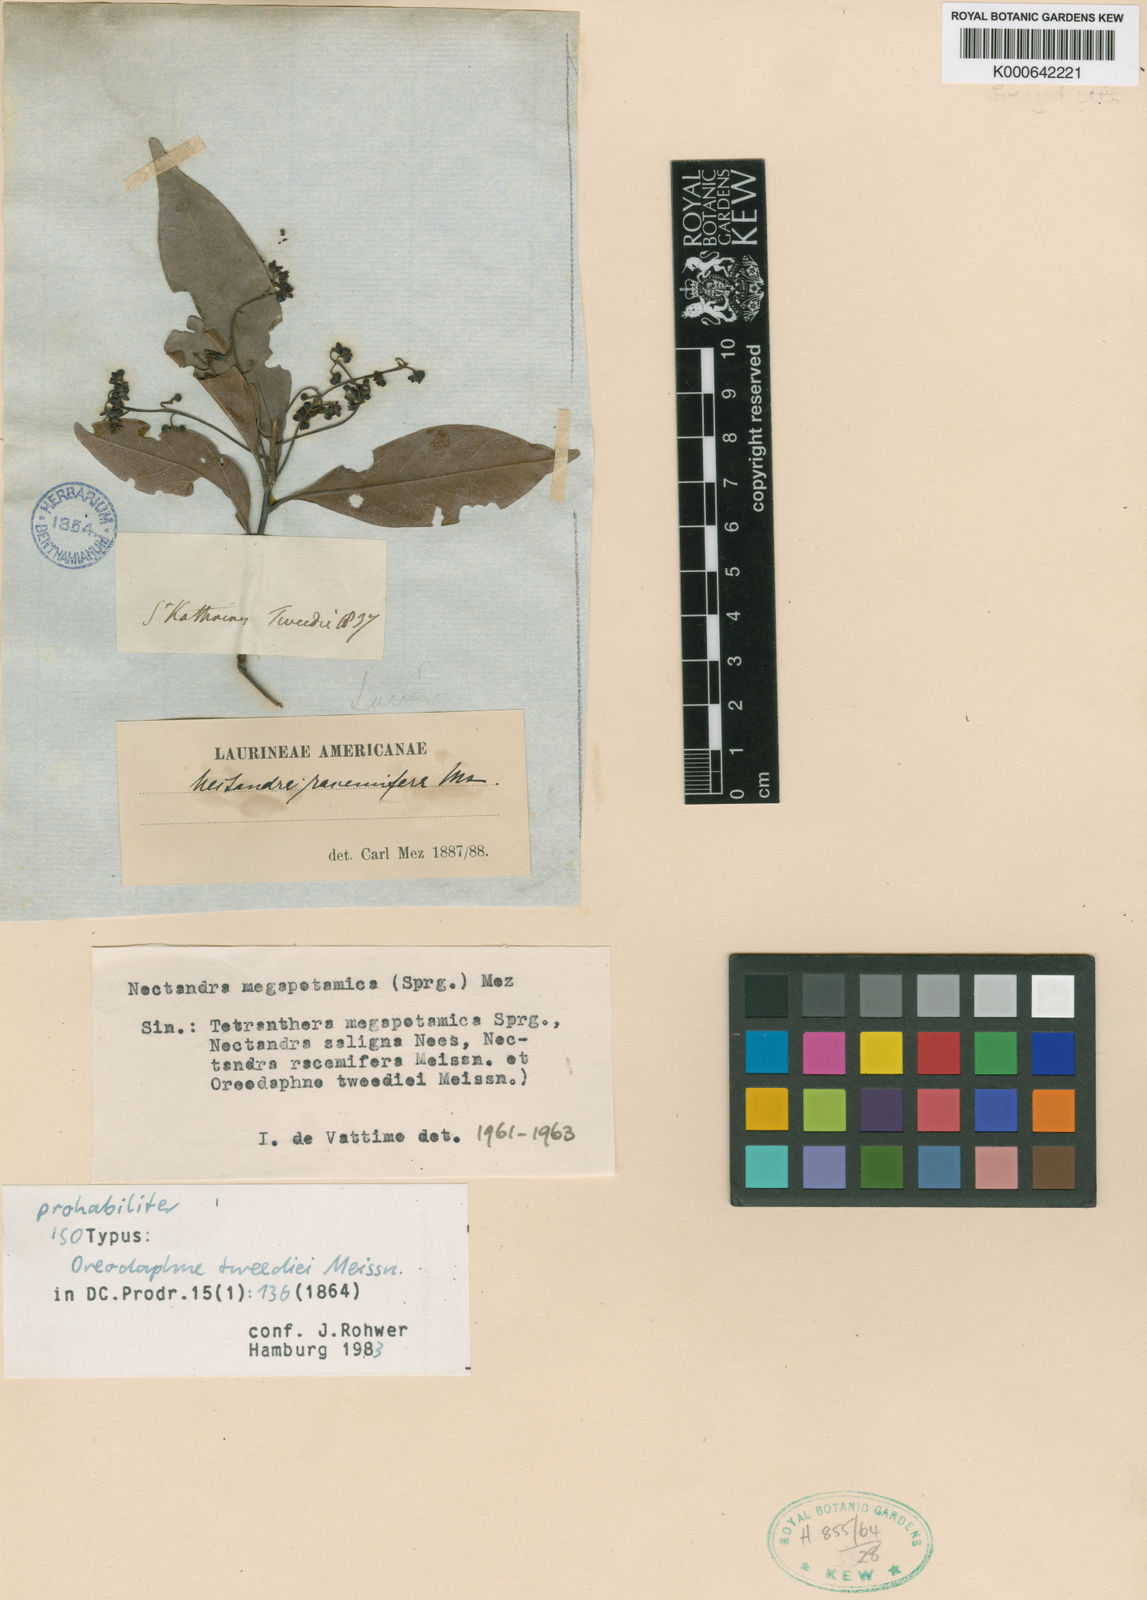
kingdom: Plantae
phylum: Tracheophyta
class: Magnoliopsida
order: Laurales
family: Lauraceae
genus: Nectandra
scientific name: Nectandra megapotamica
